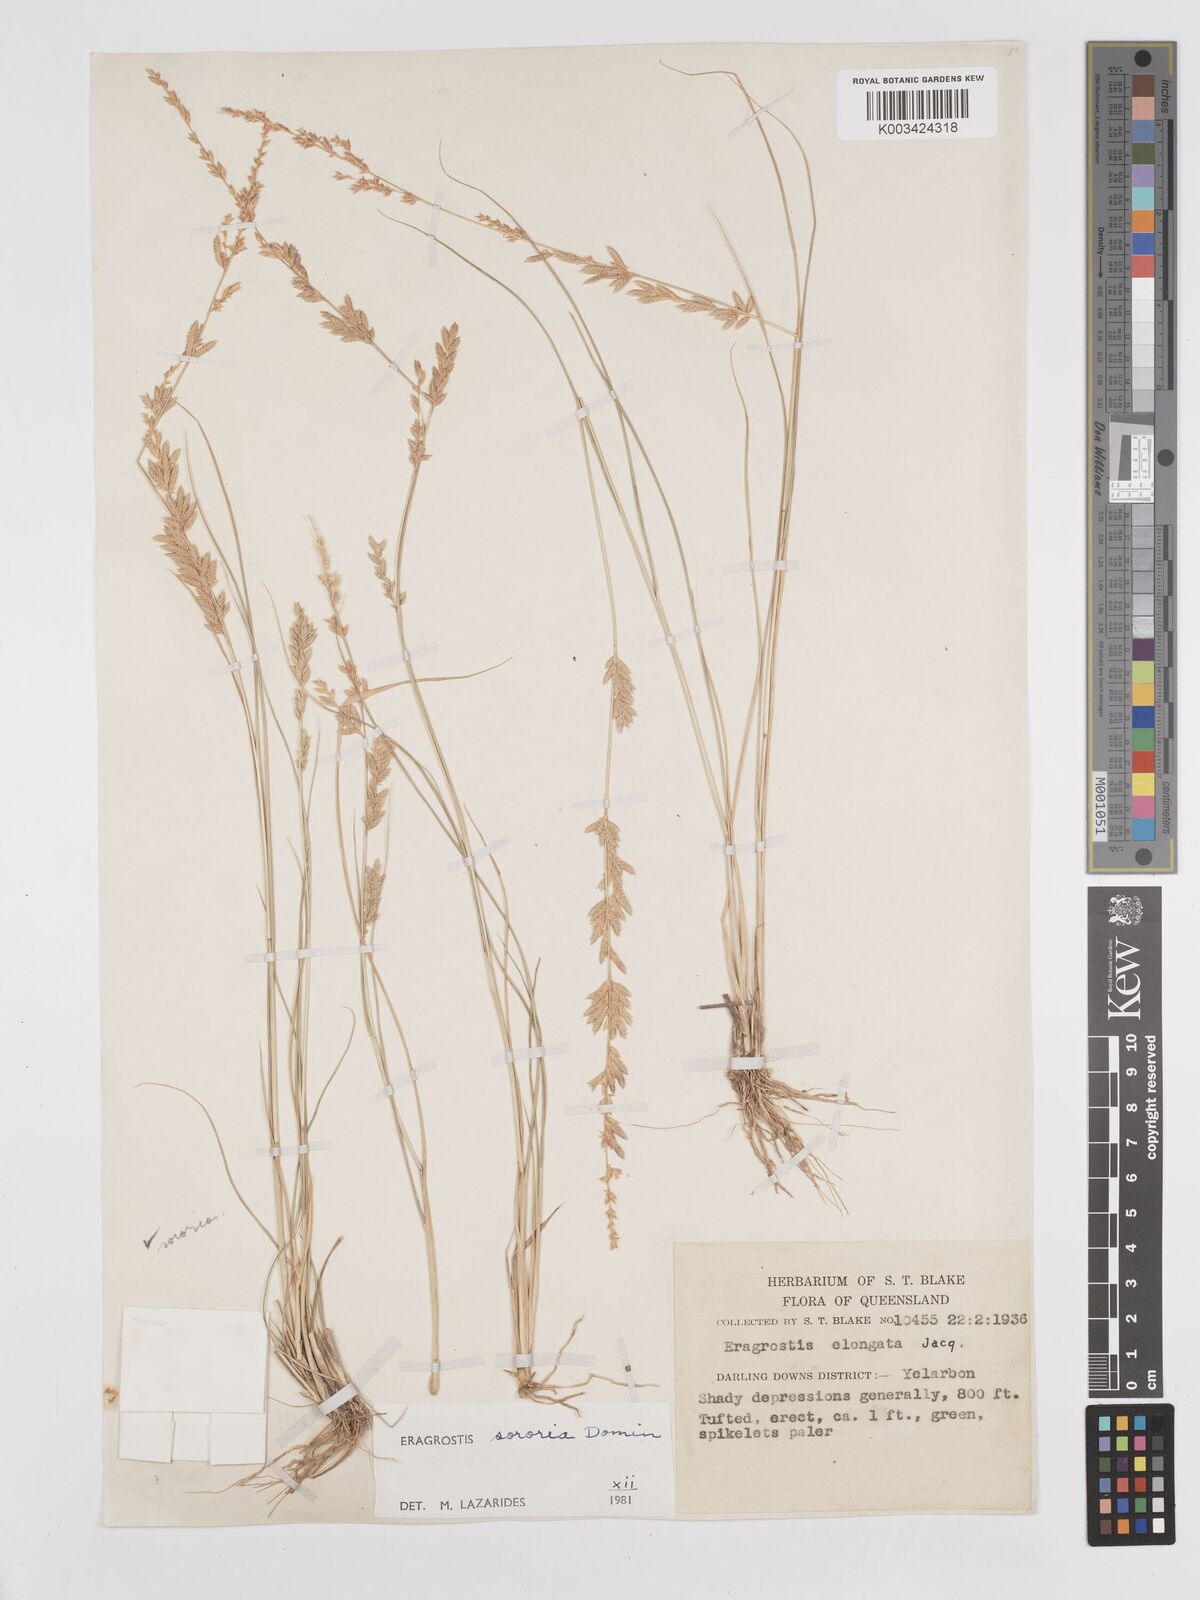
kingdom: Plantae
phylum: Tracheophyta
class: Liliopsida
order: Poales
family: Poaceae
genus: Eragrostis
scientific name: Eragrostis sororia
